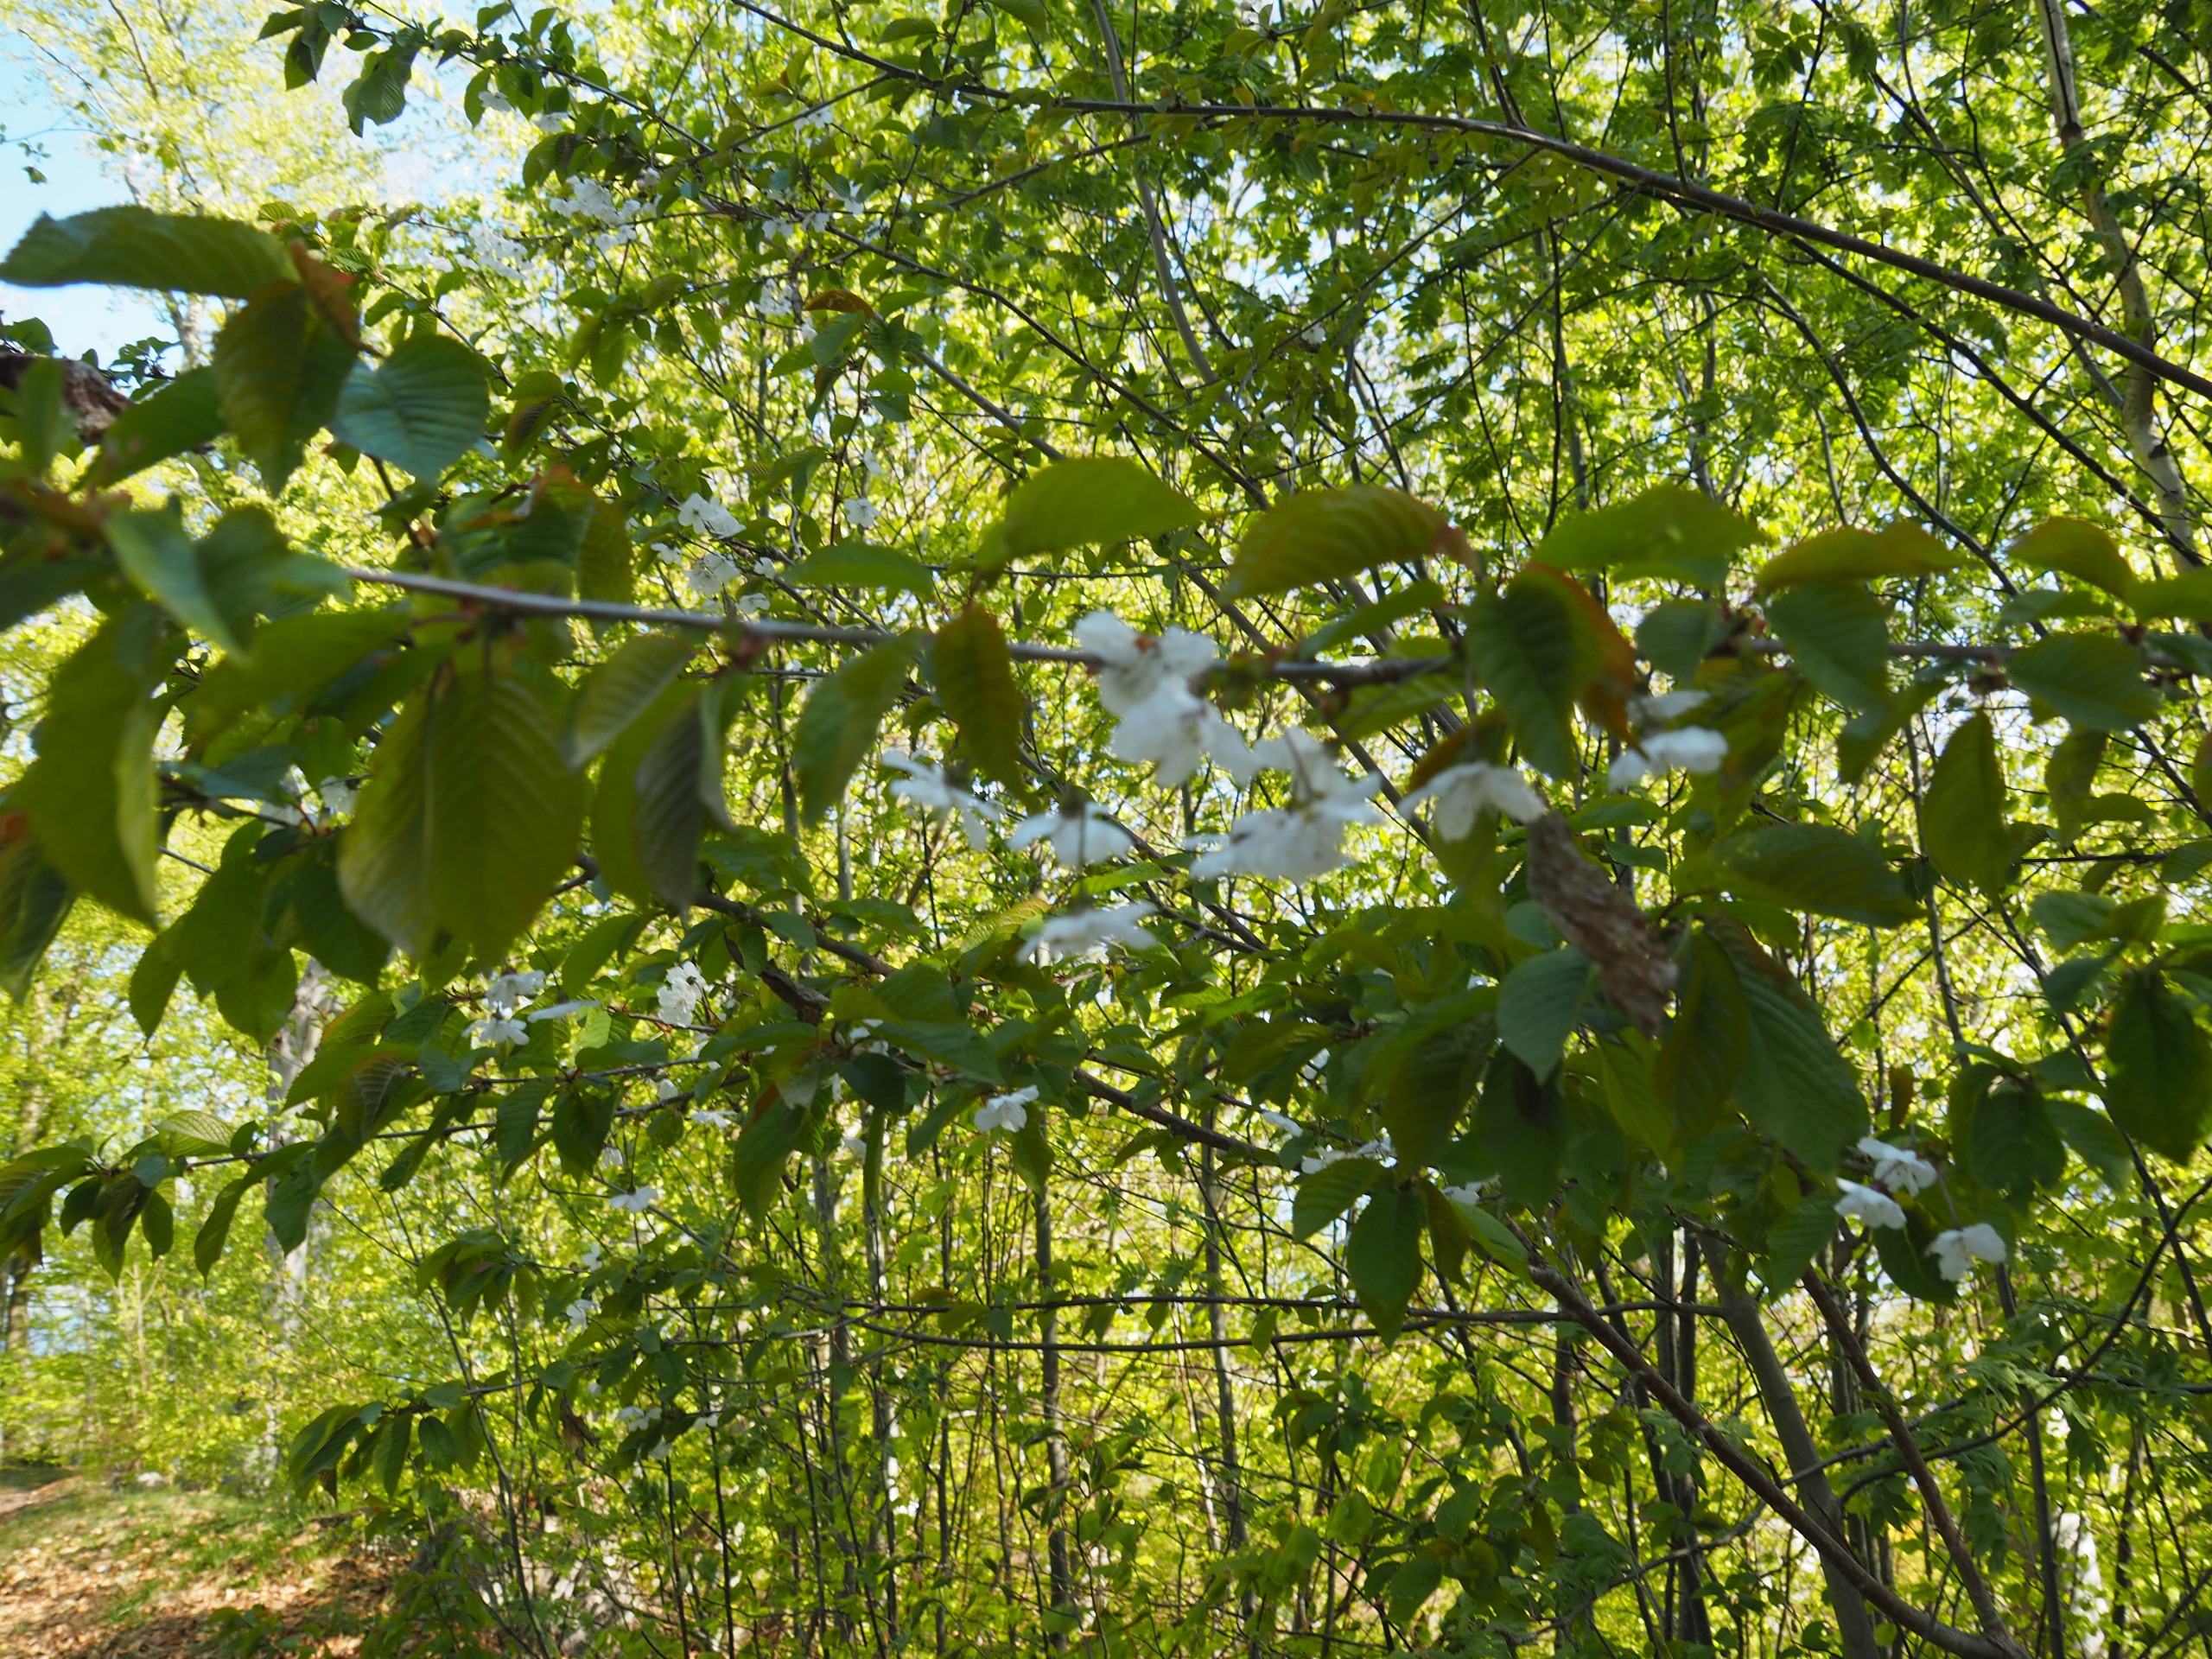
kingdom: Plantae
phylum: Tracheophyta
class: Magnoliopsida
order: Rosales
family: Rosaceae
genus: Prunus
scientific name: Prunus avium
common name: Fugle-kirsebær
